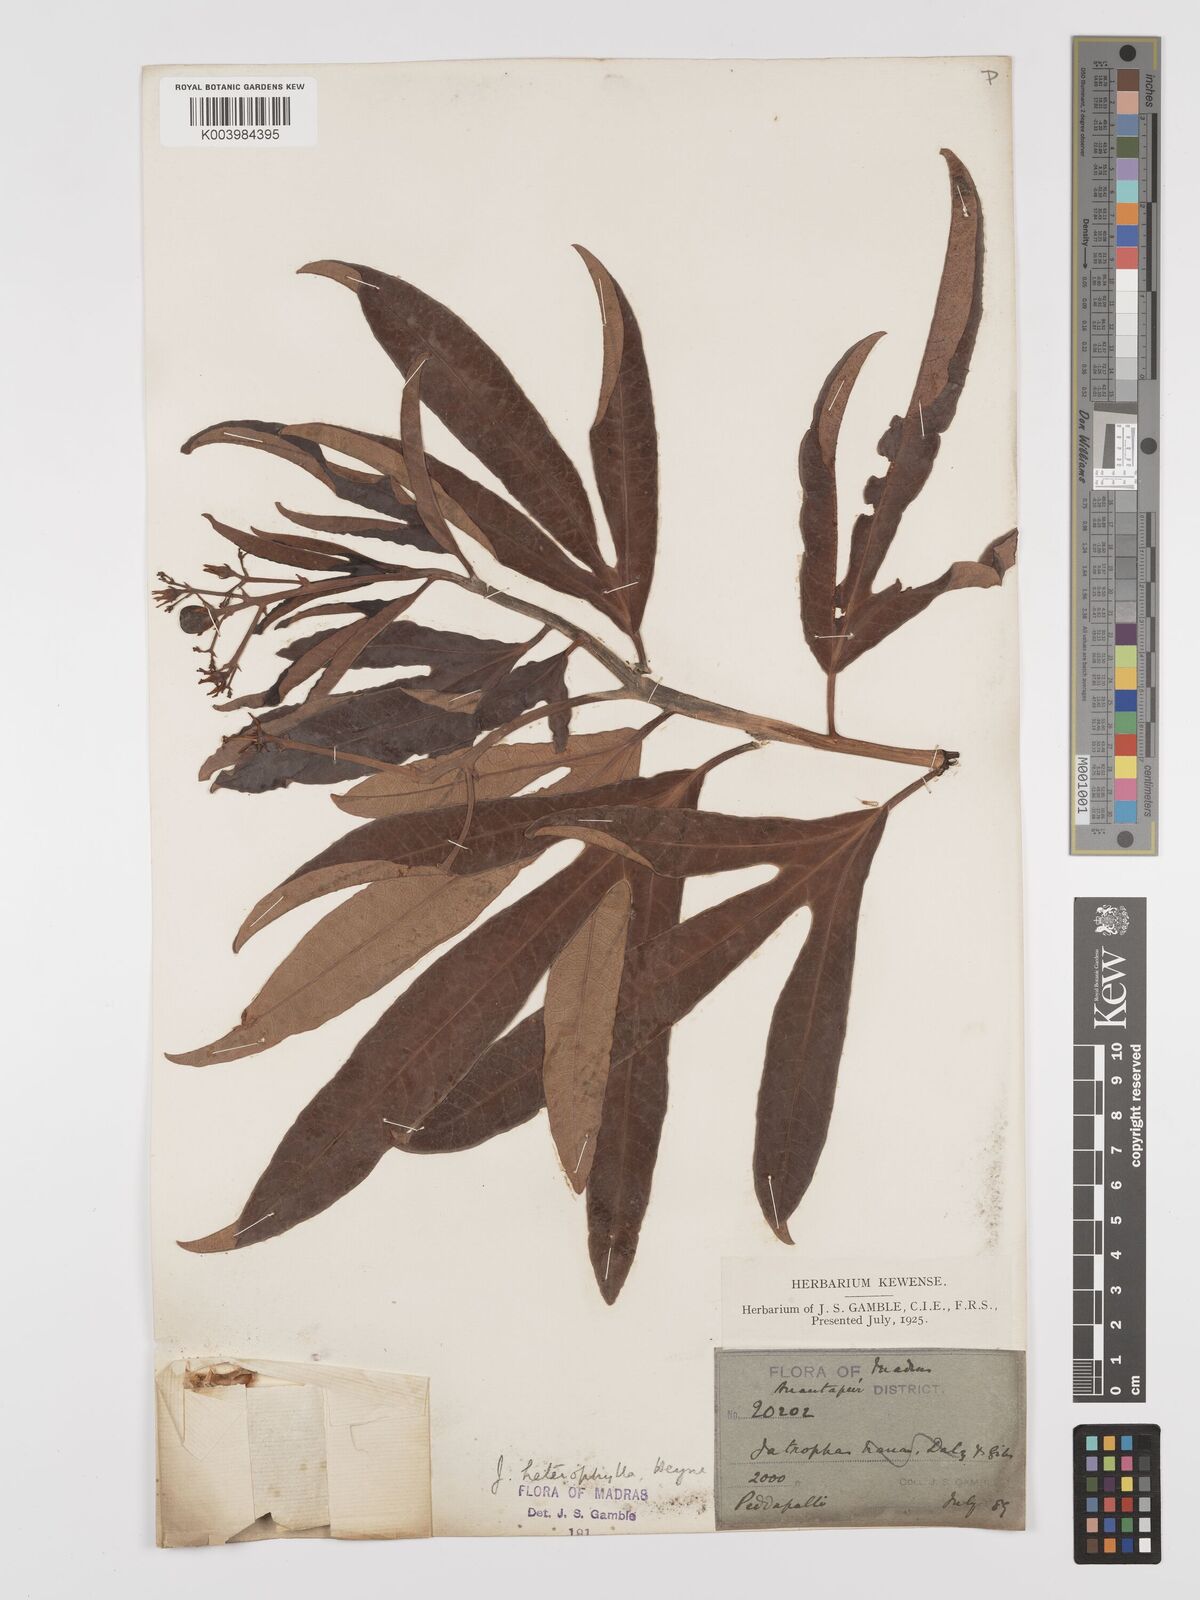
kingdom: Plantae
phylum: Tracheophyta
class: Magnoliopsida
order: Malpighiales
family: Euphorbiaceae
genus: Jatropha
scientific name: Jatropha
